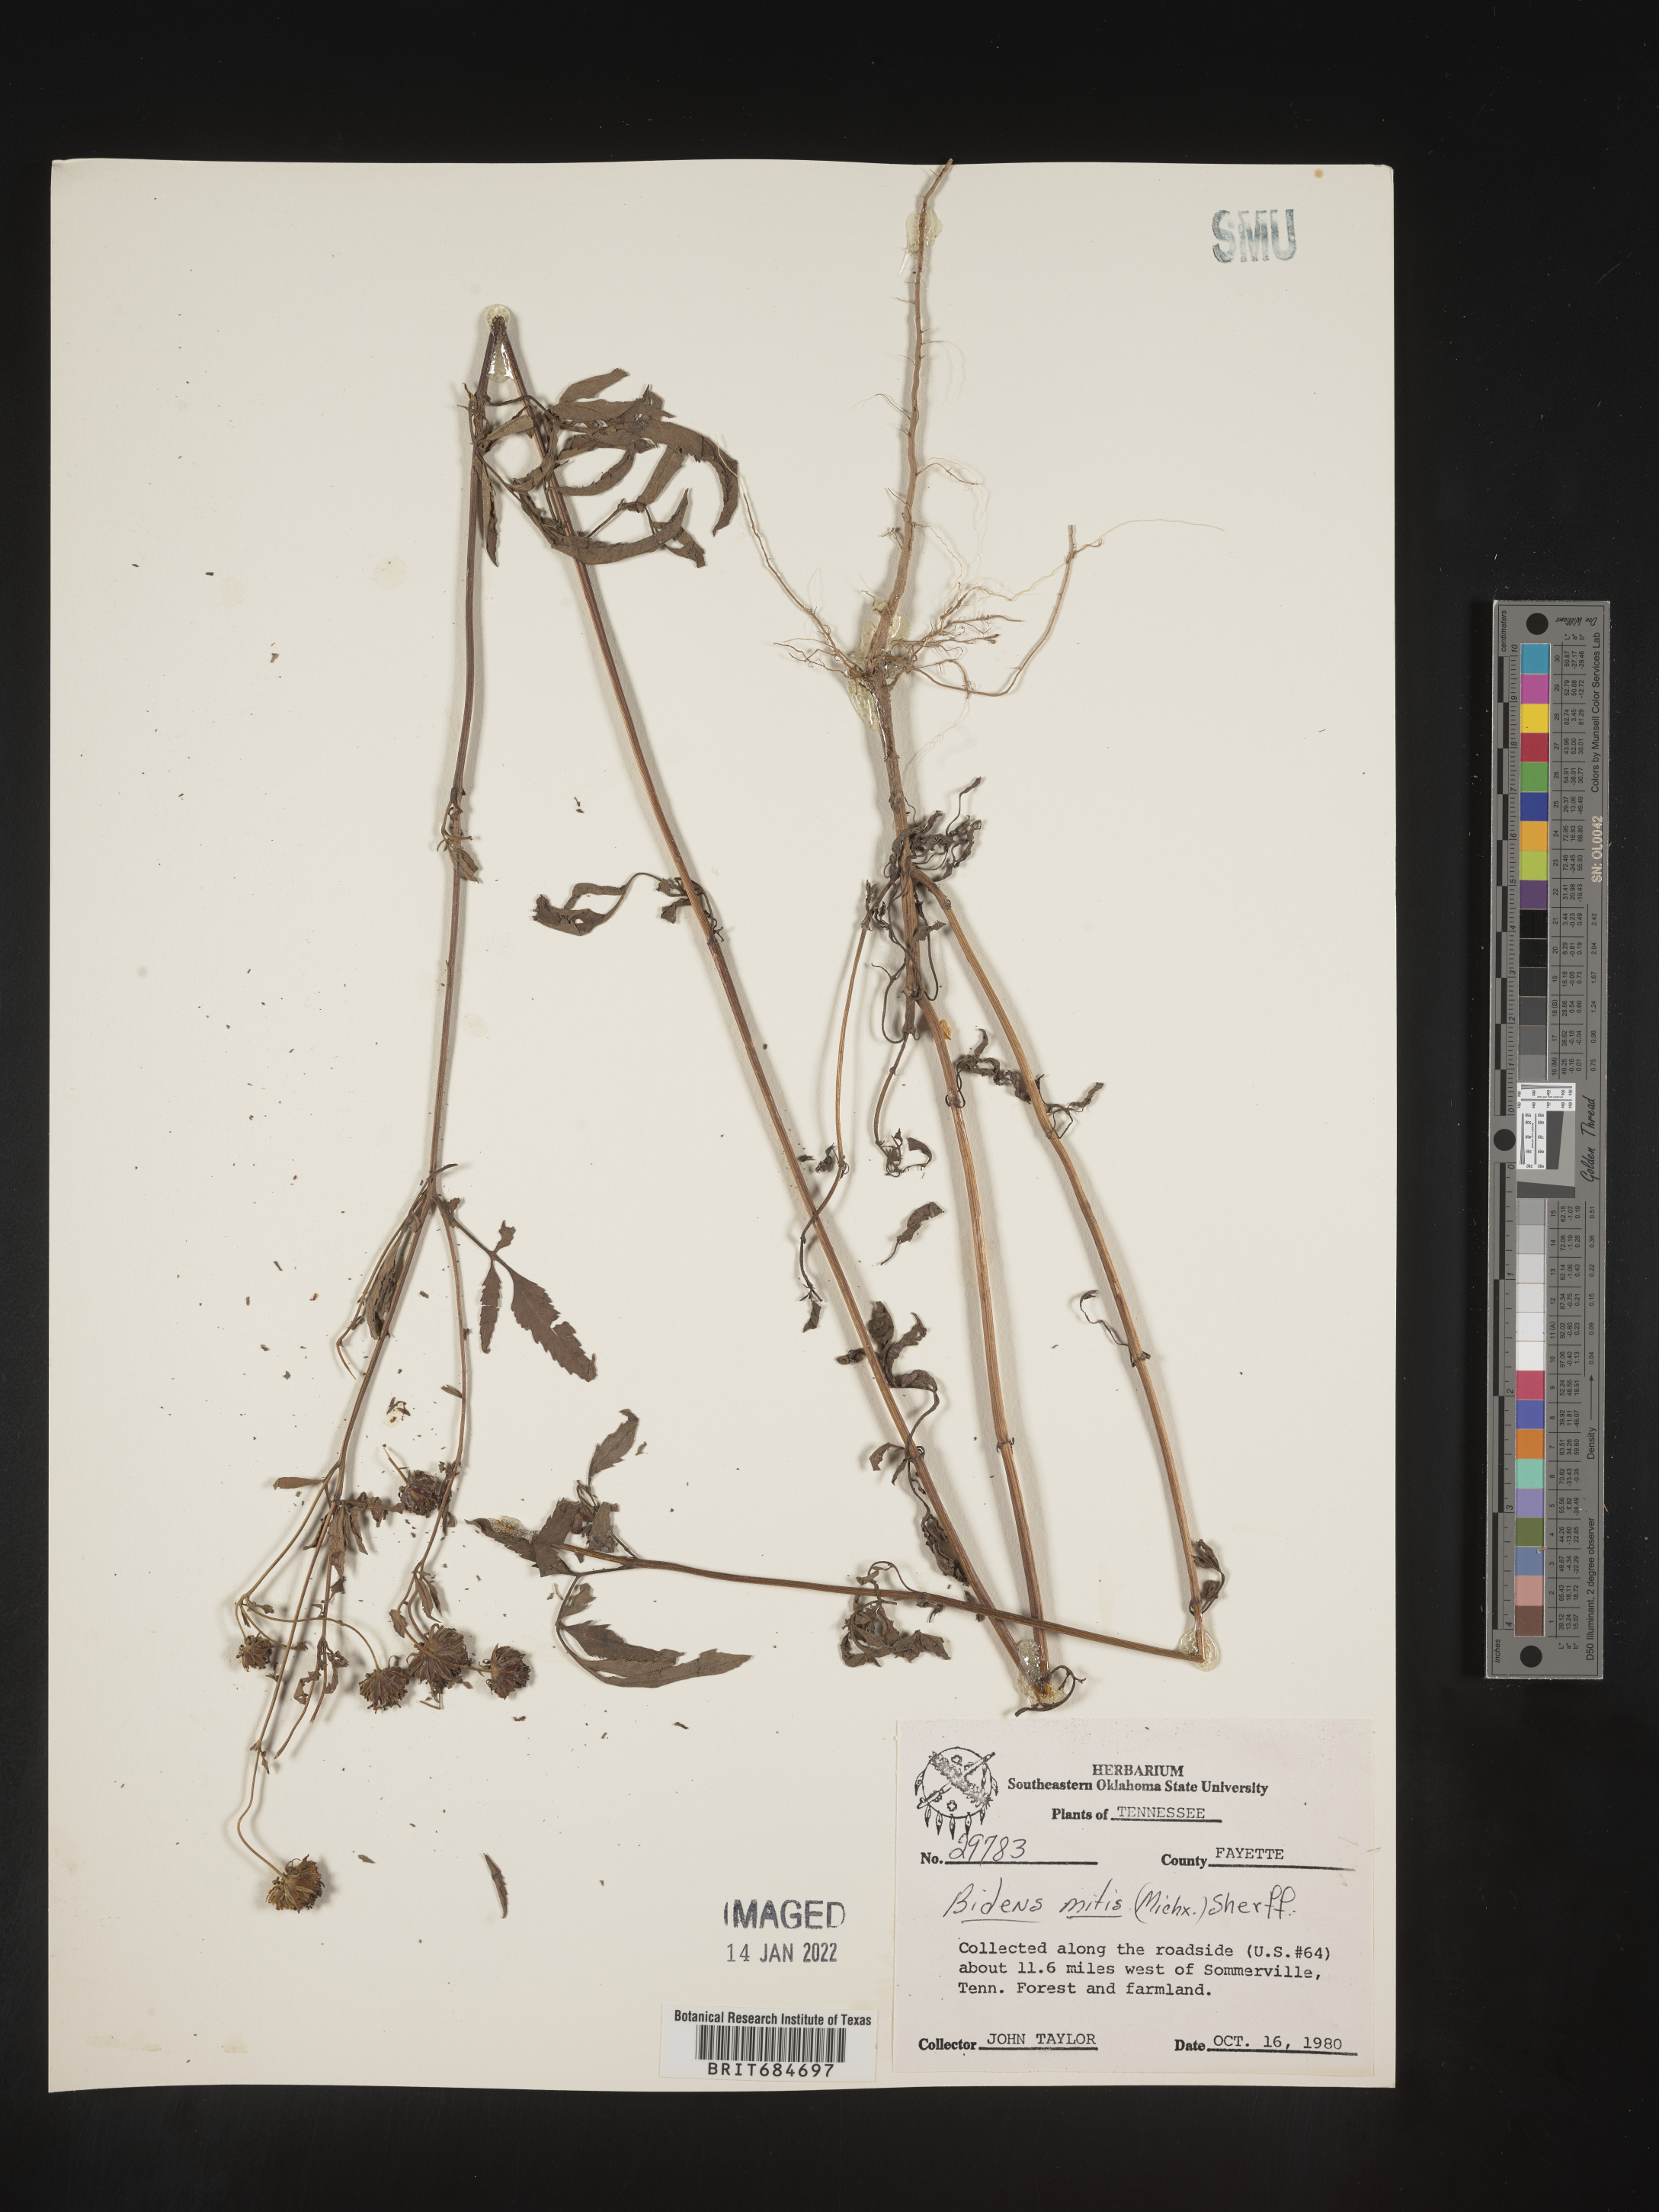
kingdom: Plantae
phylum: Tracheophyta
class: Magnoliopsida
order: Asterales
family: Asteraceae
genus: Bidens
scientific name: Bidens mitis
